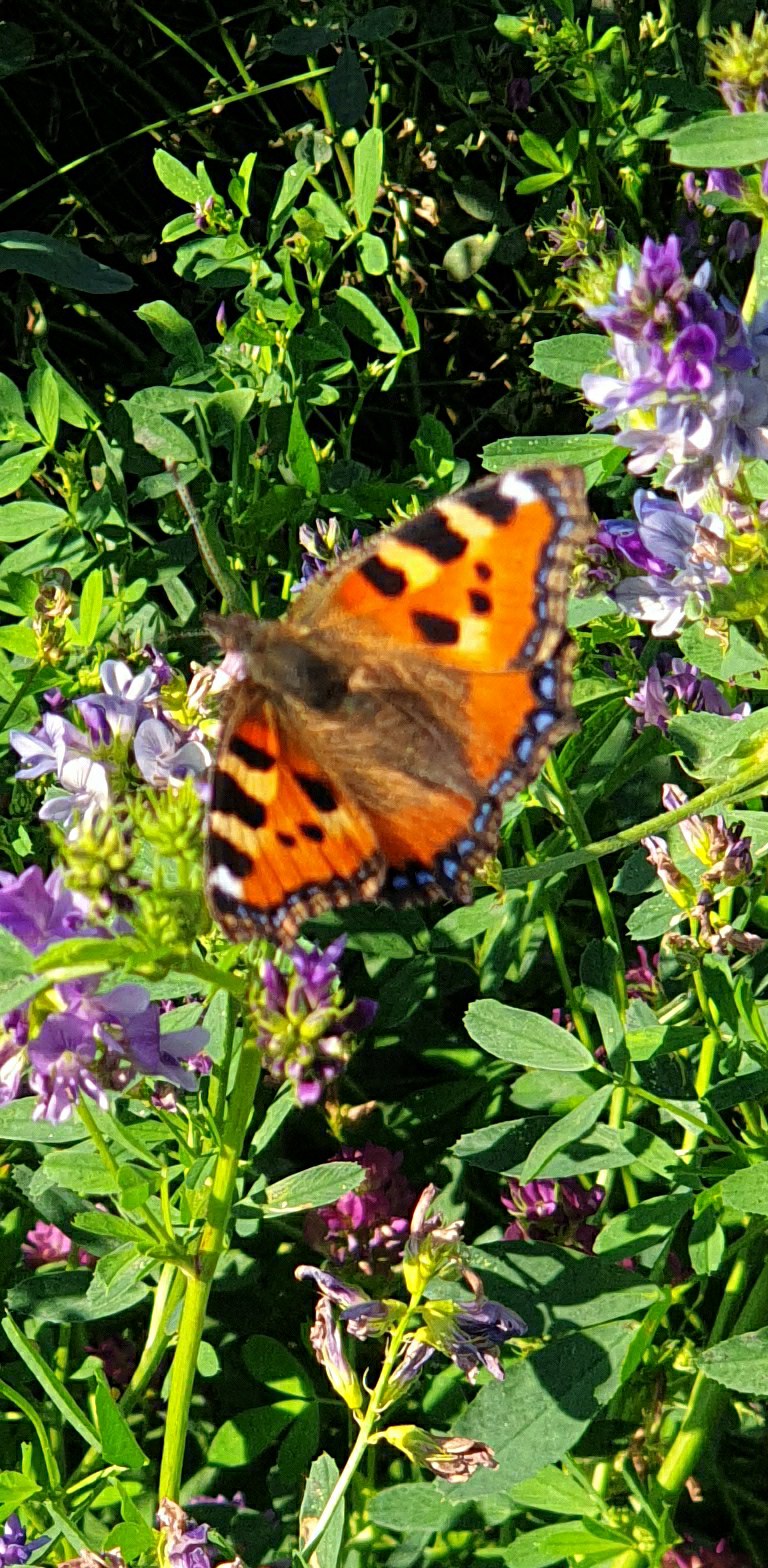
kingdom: Animalia
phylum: Arthropoda
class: Insecta
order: Lepidoptera
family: Nymphalidae
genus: Aglais
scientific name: Aglais urticae
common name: Nældens takvinge
